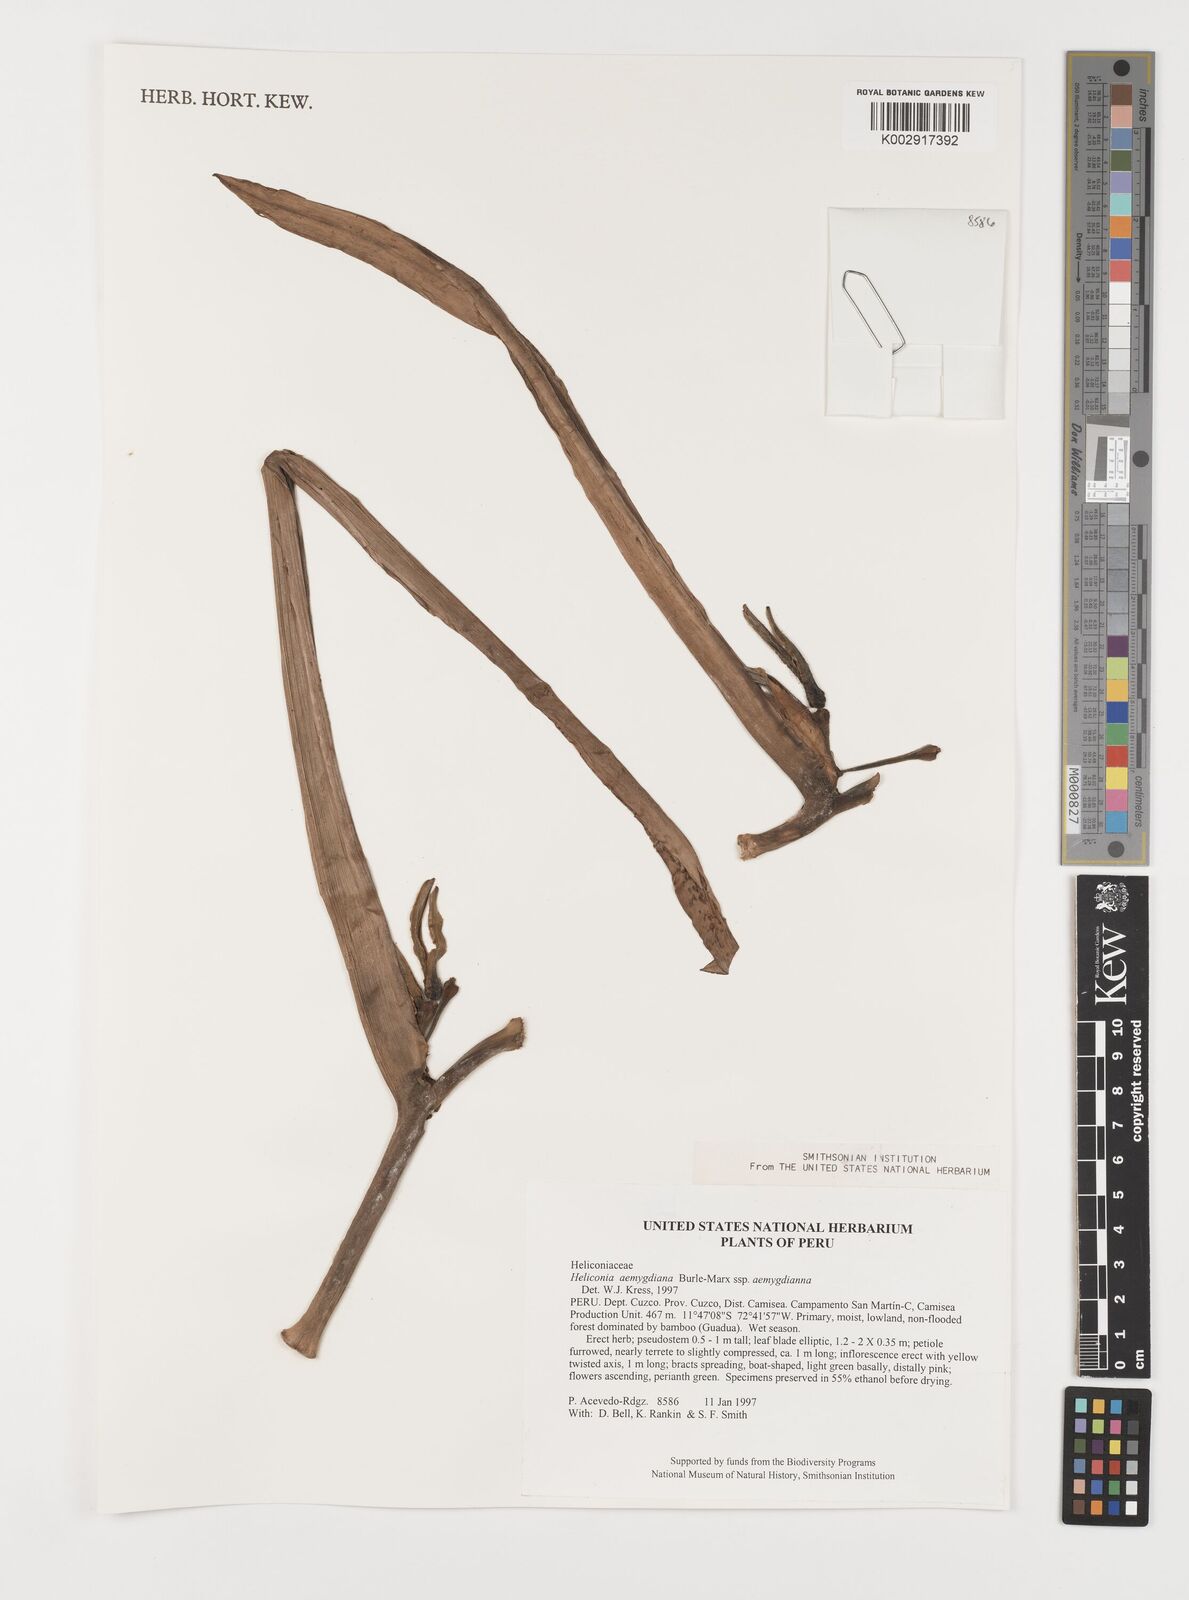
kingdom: Plantae
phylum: Tracheophyta
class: Liliopsida
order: Zingiberales
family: Heliconiaceae
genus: Heliconia
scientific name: Heliconia aemygdiana
